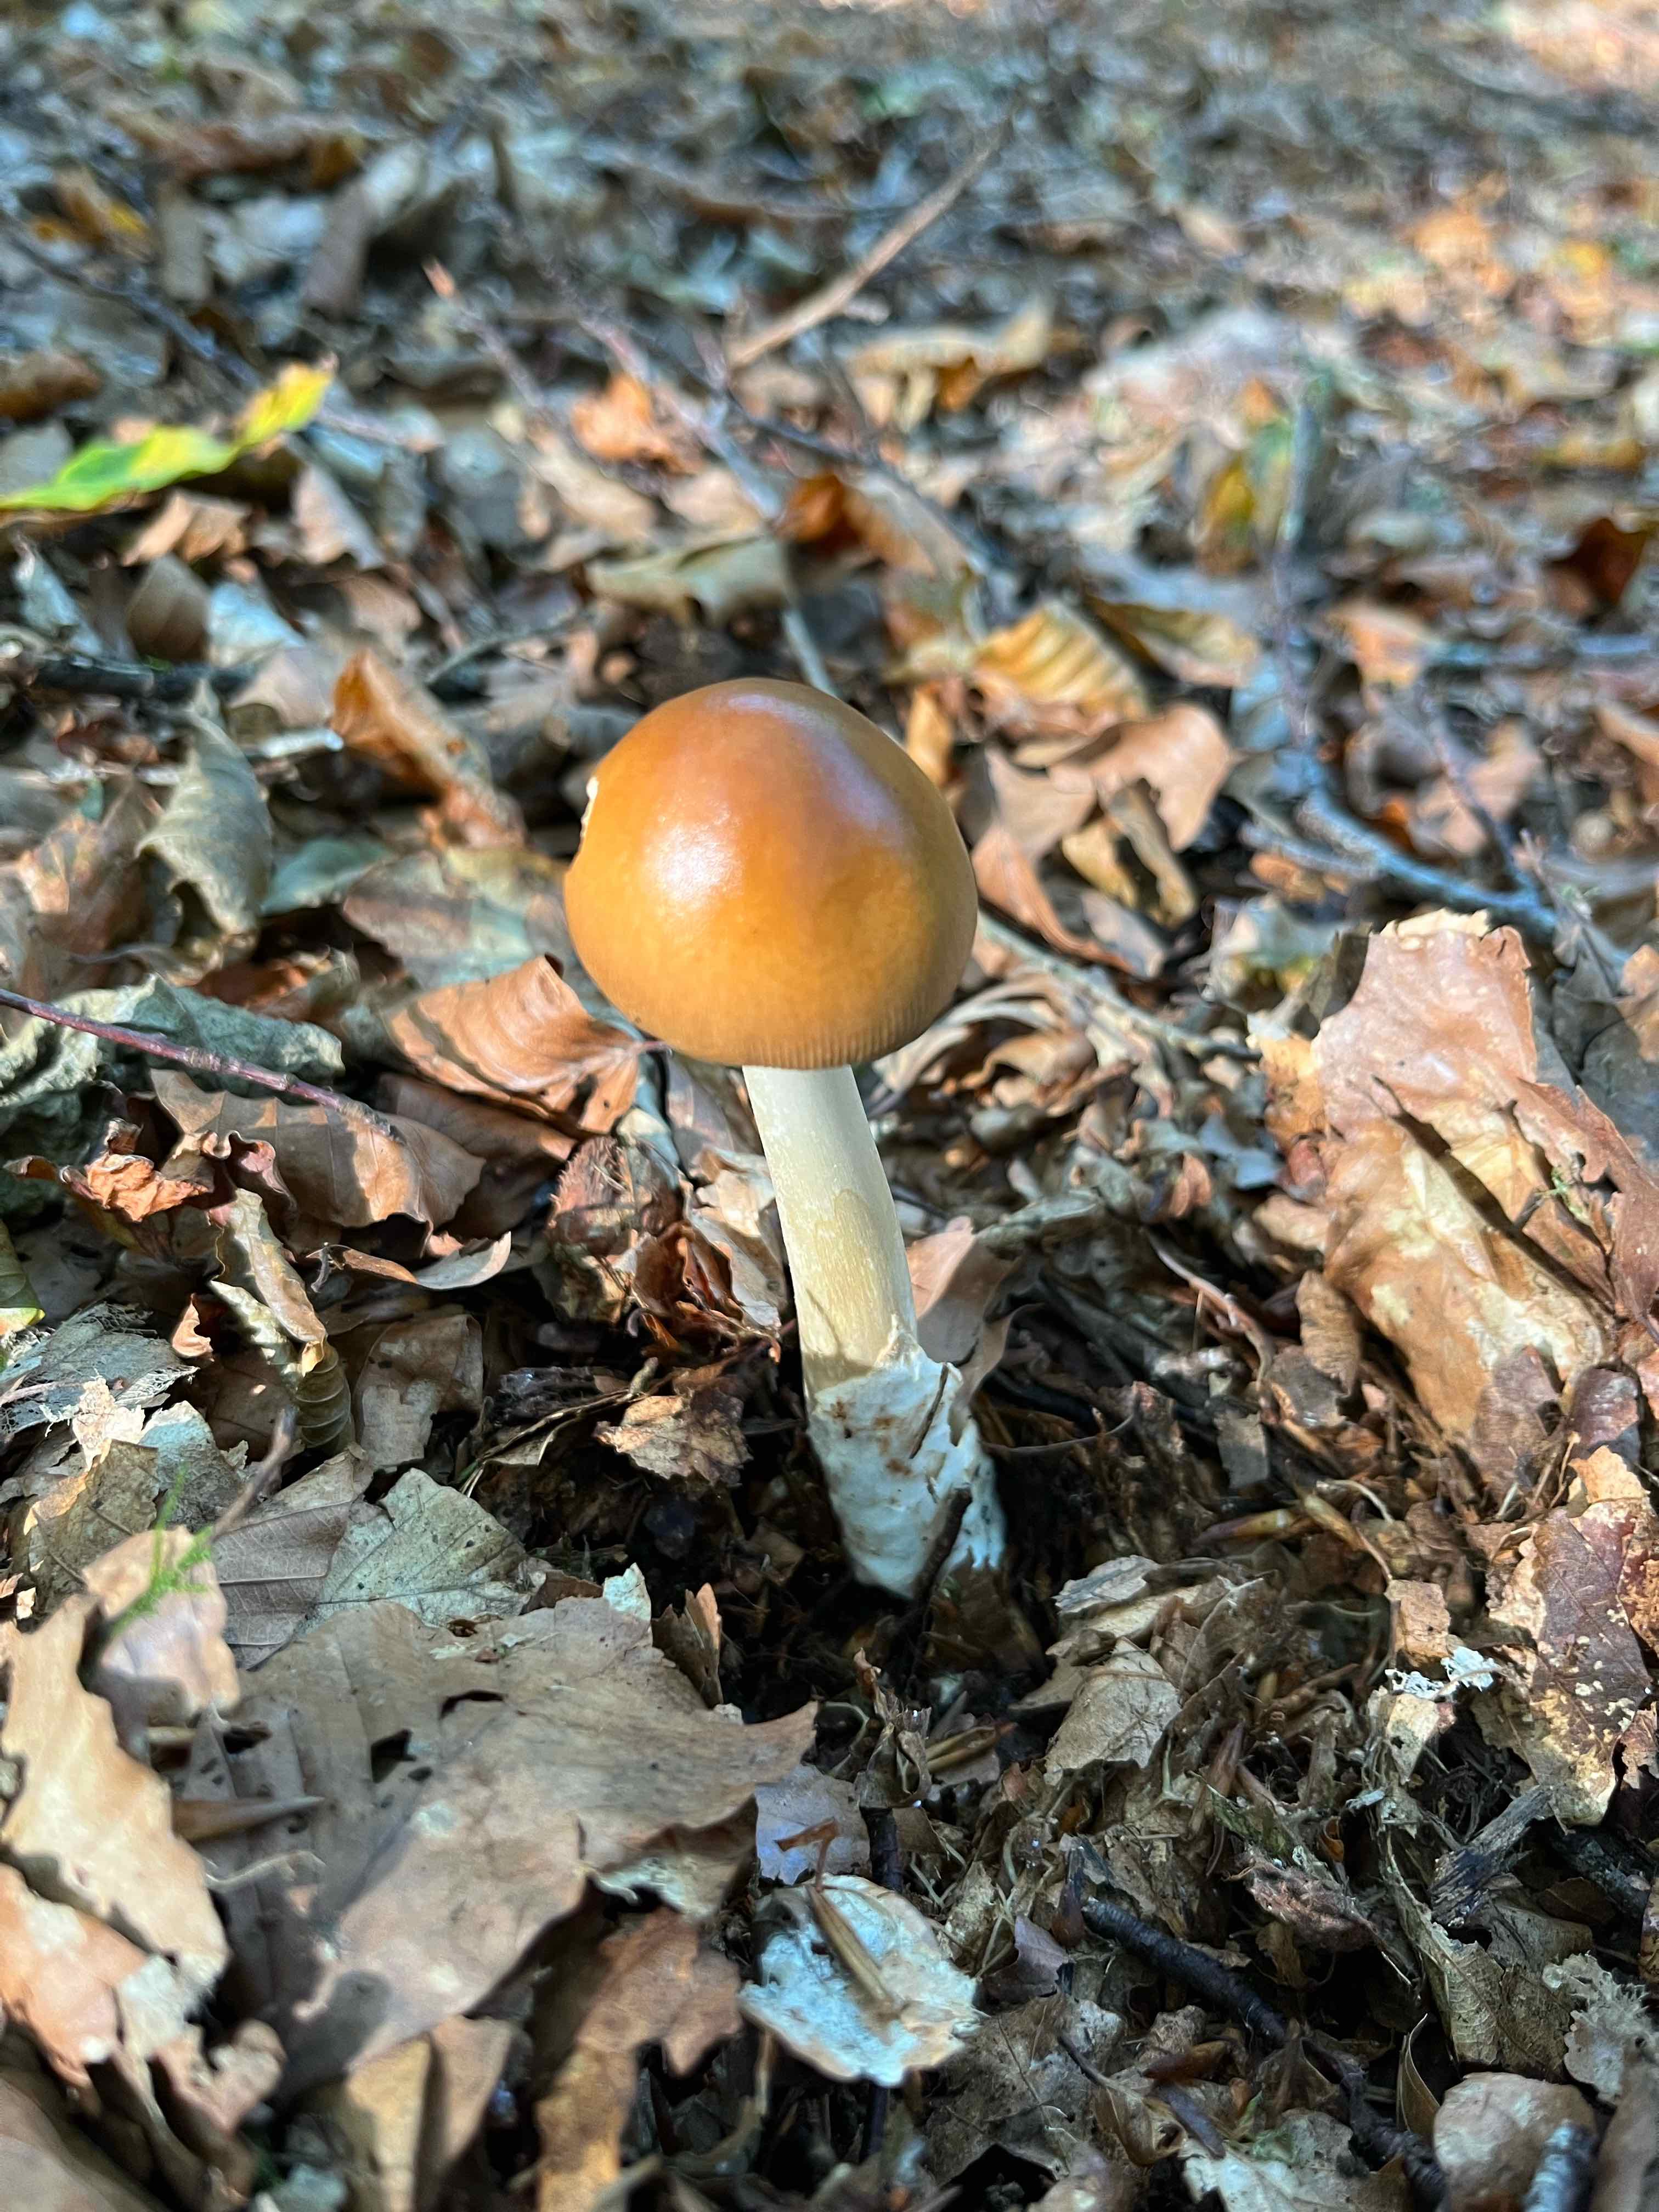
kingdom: Fungi
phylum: Basidiomycota
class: Agaricomycetes
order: Agaricales
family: Amanitaceae
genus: Amanita
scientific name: Amanita fulva
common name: brun kam-fluesvamp
